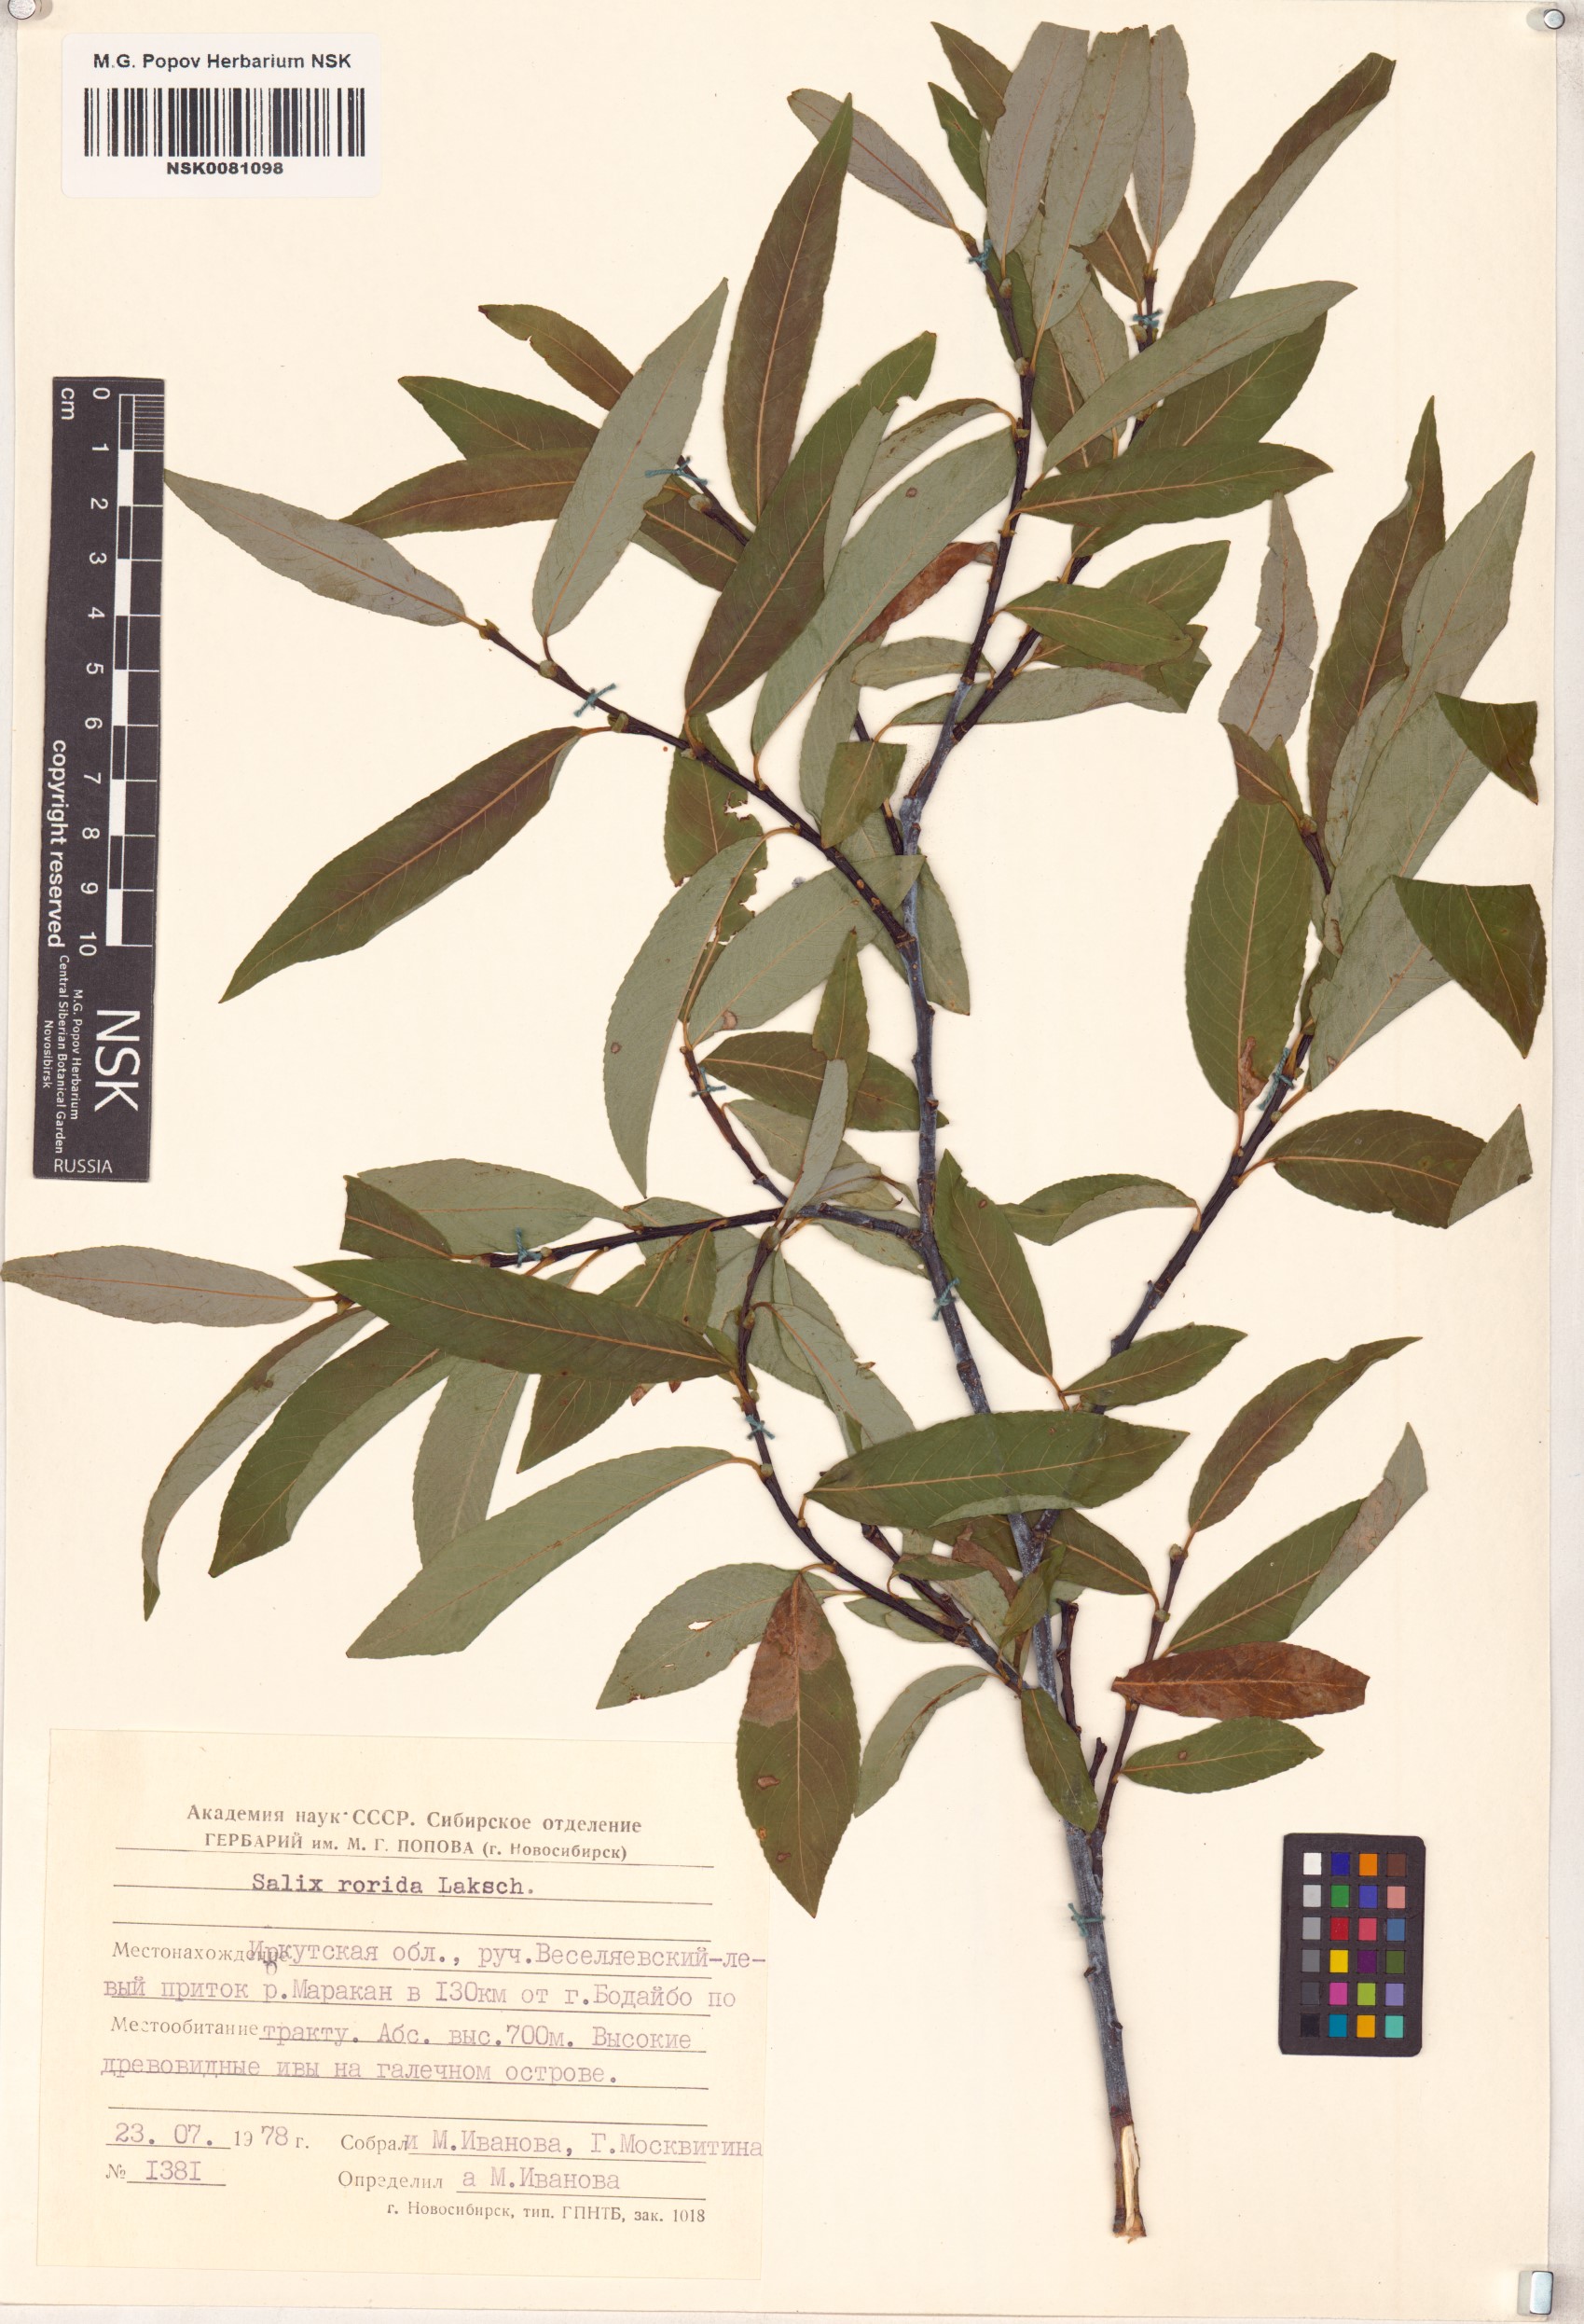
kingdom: Plantae
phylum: Tracheophyta
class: Magnoliopsida
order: Malpighiales
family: Salicaceae
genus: Salix
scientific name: Salix rorida
